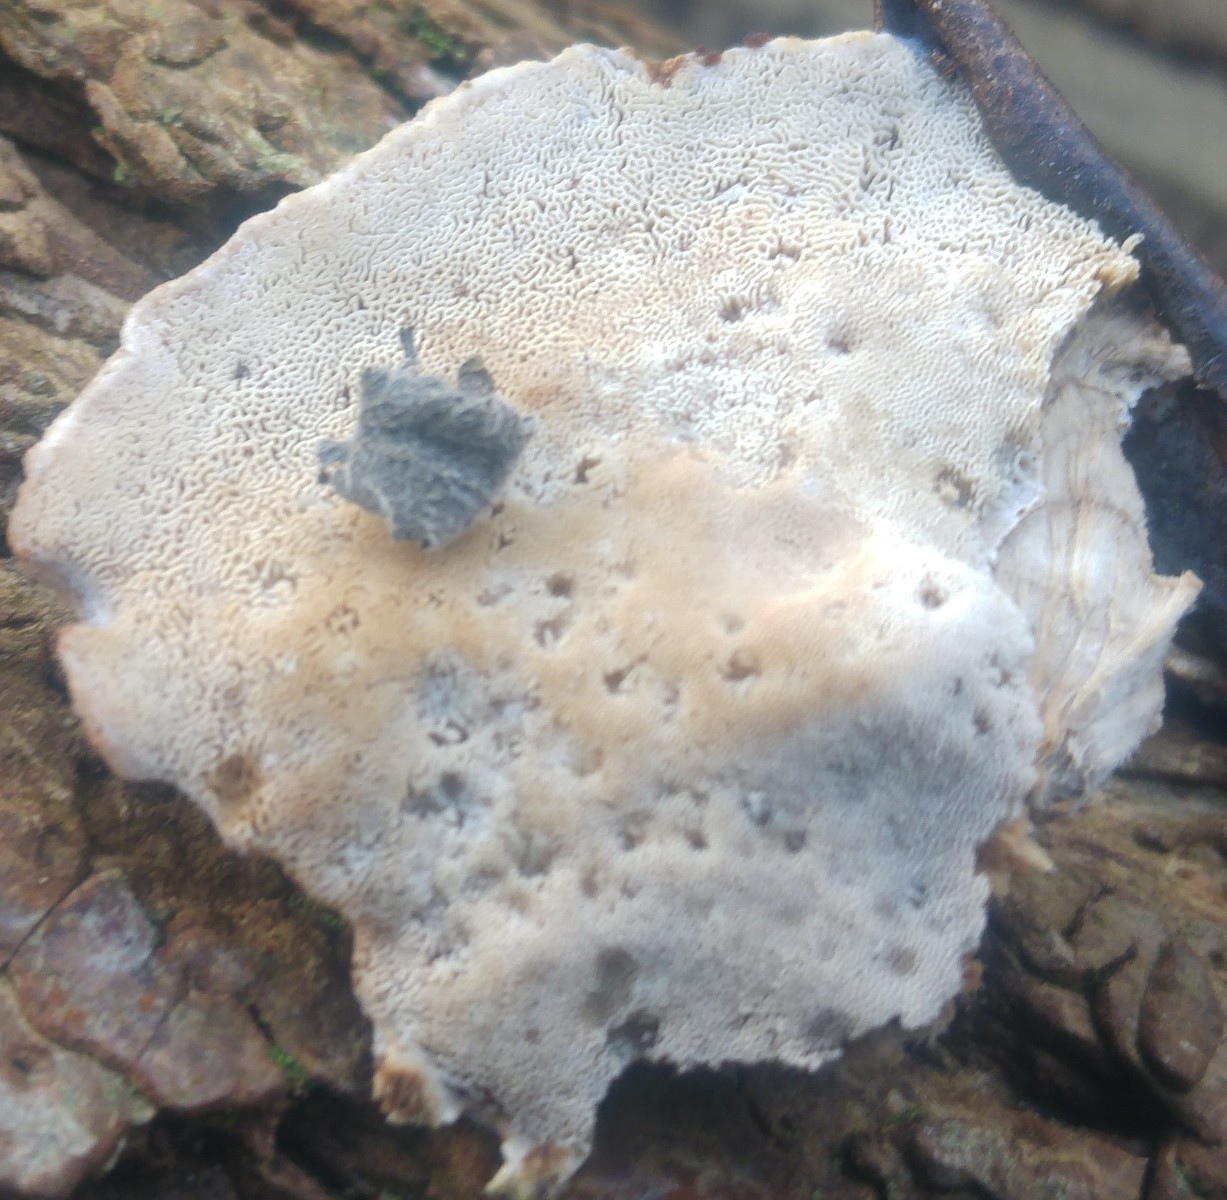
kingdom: Fungi
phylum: Basidiomycota
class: Agaricomycetes
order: Polyporales
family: Phanerochaetaceae
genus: Bjerkandera
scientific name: Bjerkandera fumosa
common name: grågul sodporesvamp
